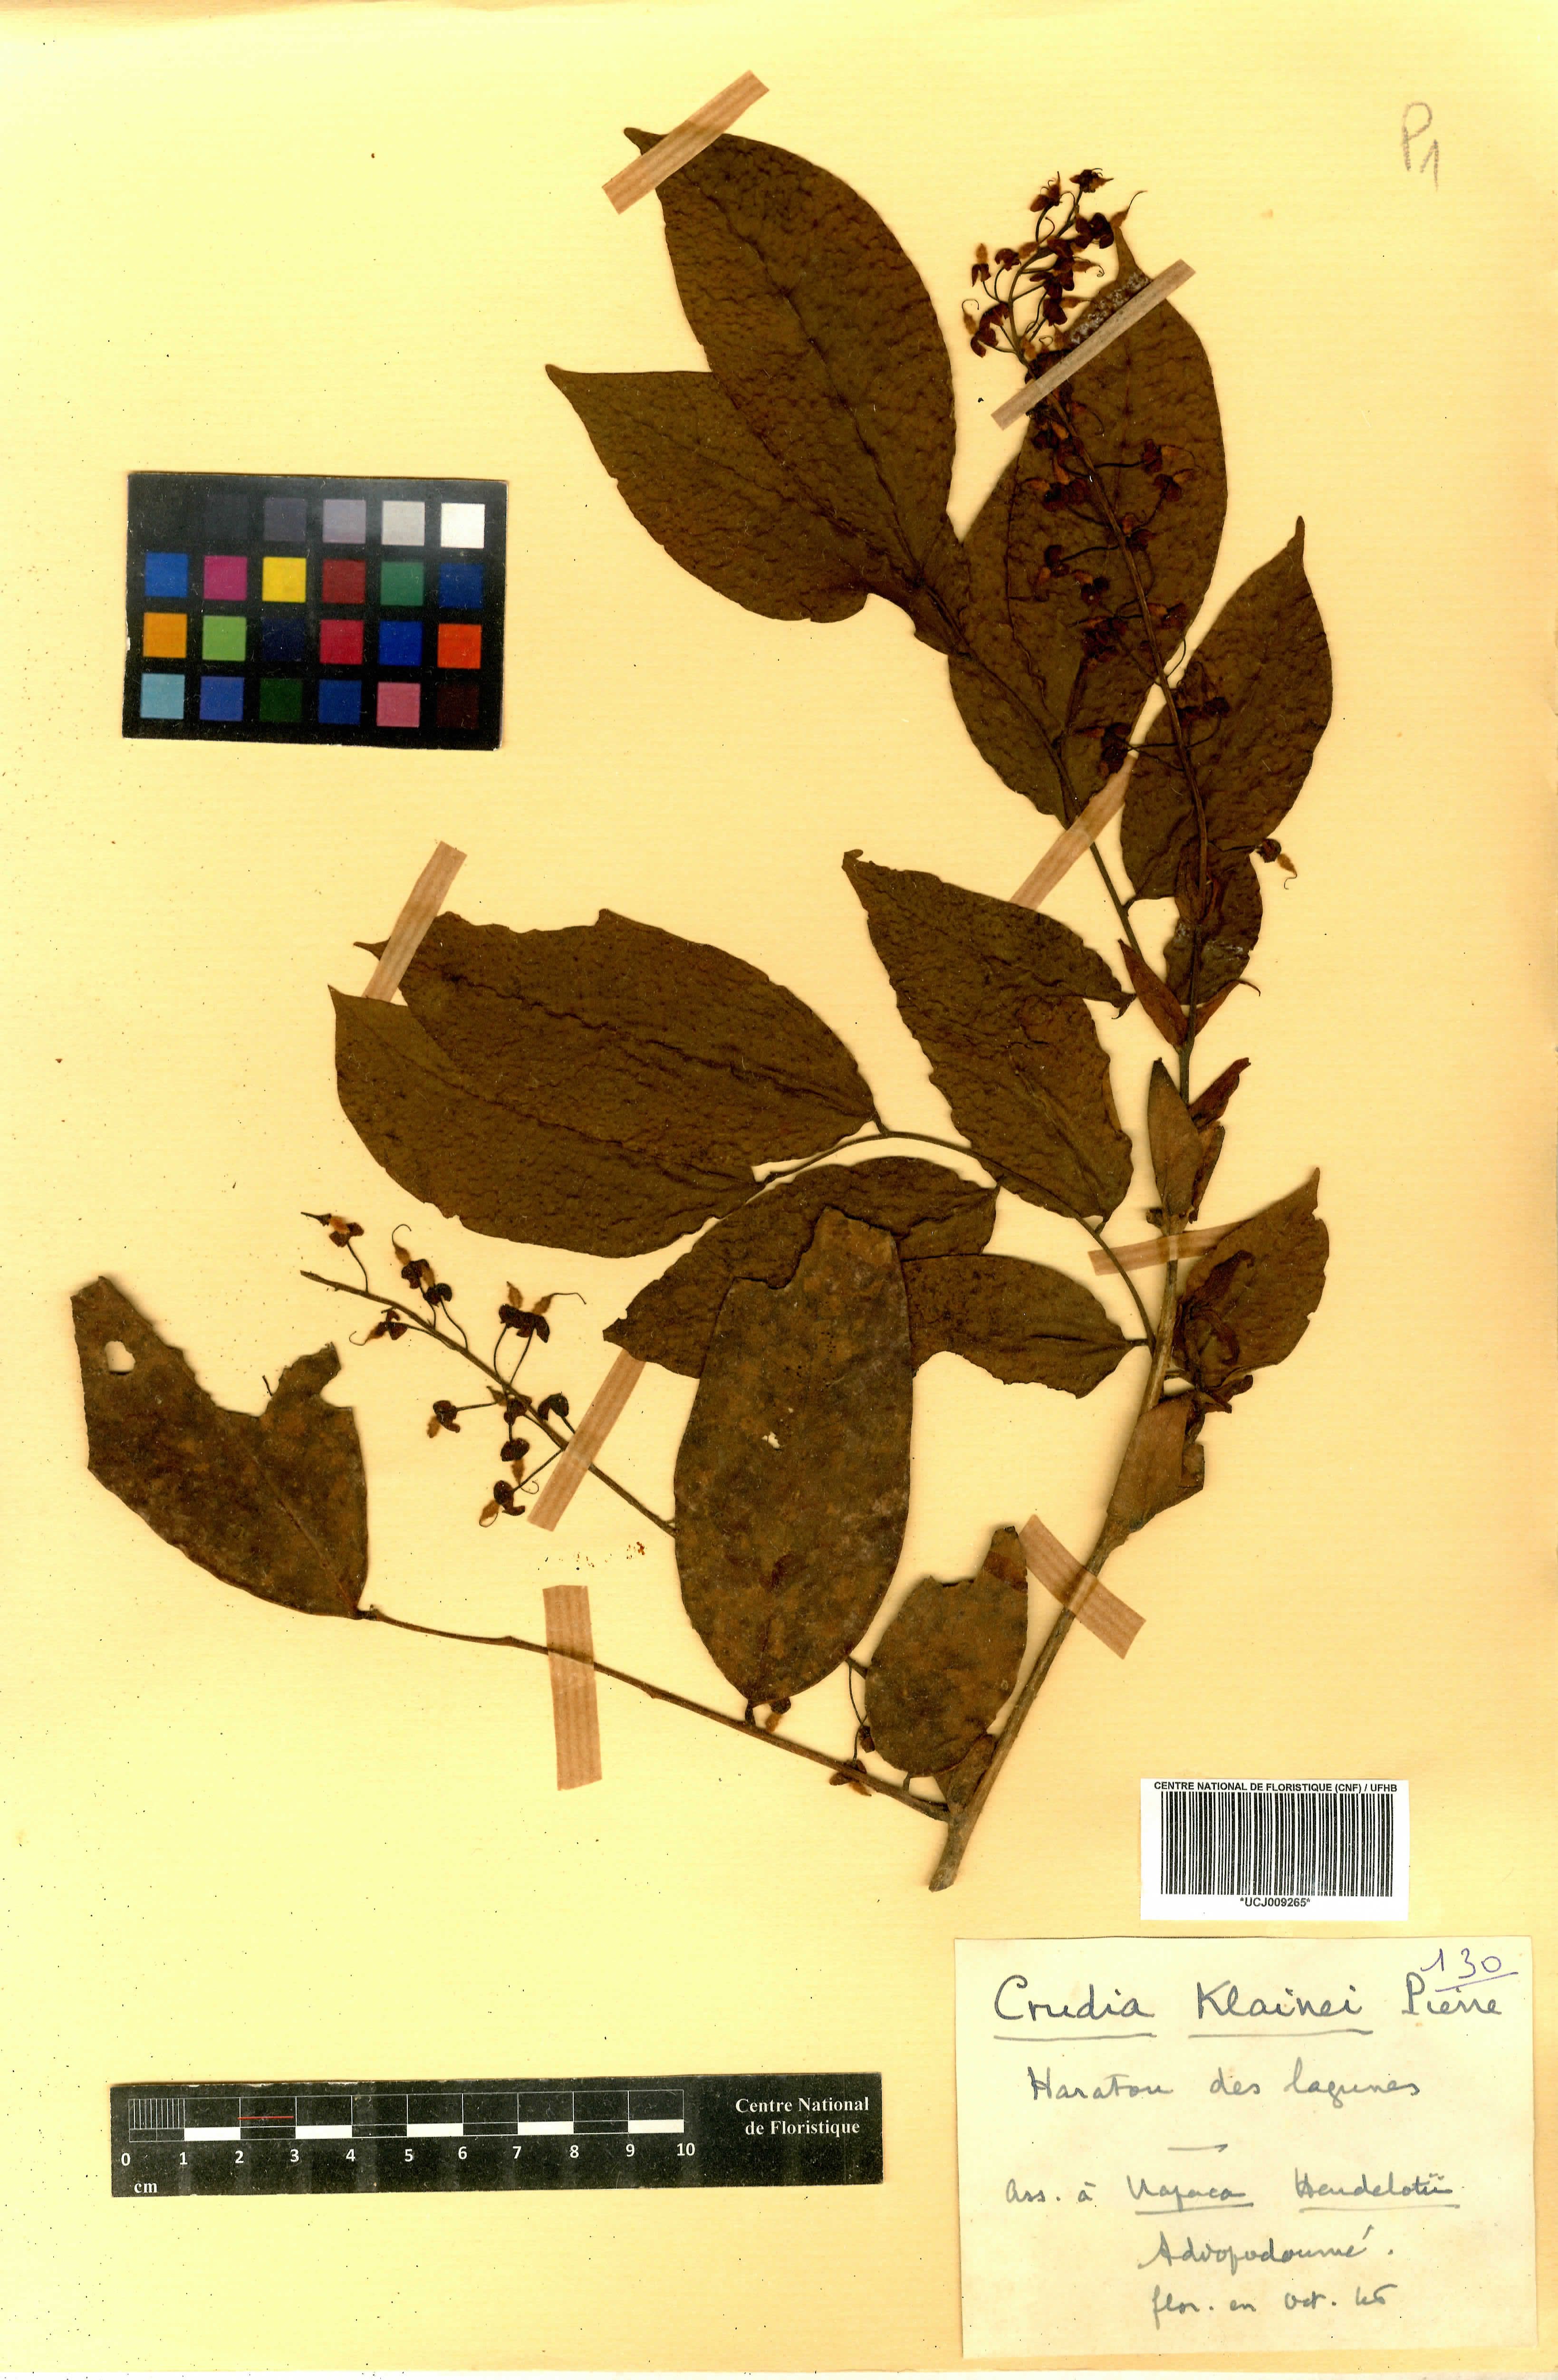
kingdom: Plantae
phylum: Tracheophyta
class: Magnoliopsida
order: Fabales
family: Fabaceae
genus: Crudia
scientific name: Crudia klainei
